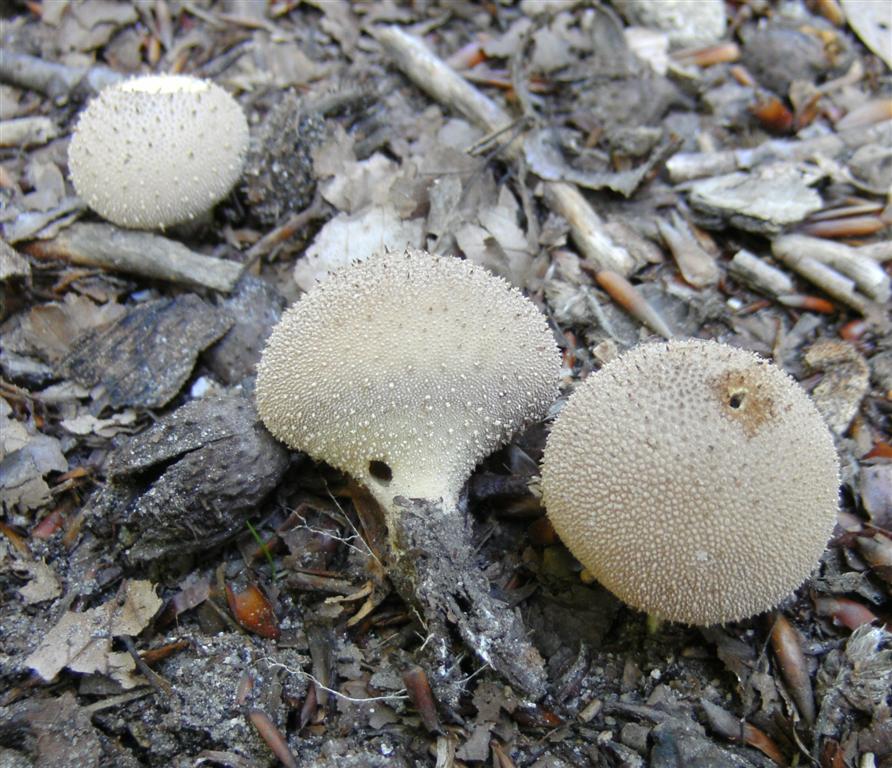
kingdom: Fungi
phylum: Basidiomycota
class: Agaricomycetes
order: Agaricales
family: Lycoperdaceae
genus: Lycoperdon
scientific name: Lycoperdon perlatum
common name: krystal-støvbold
